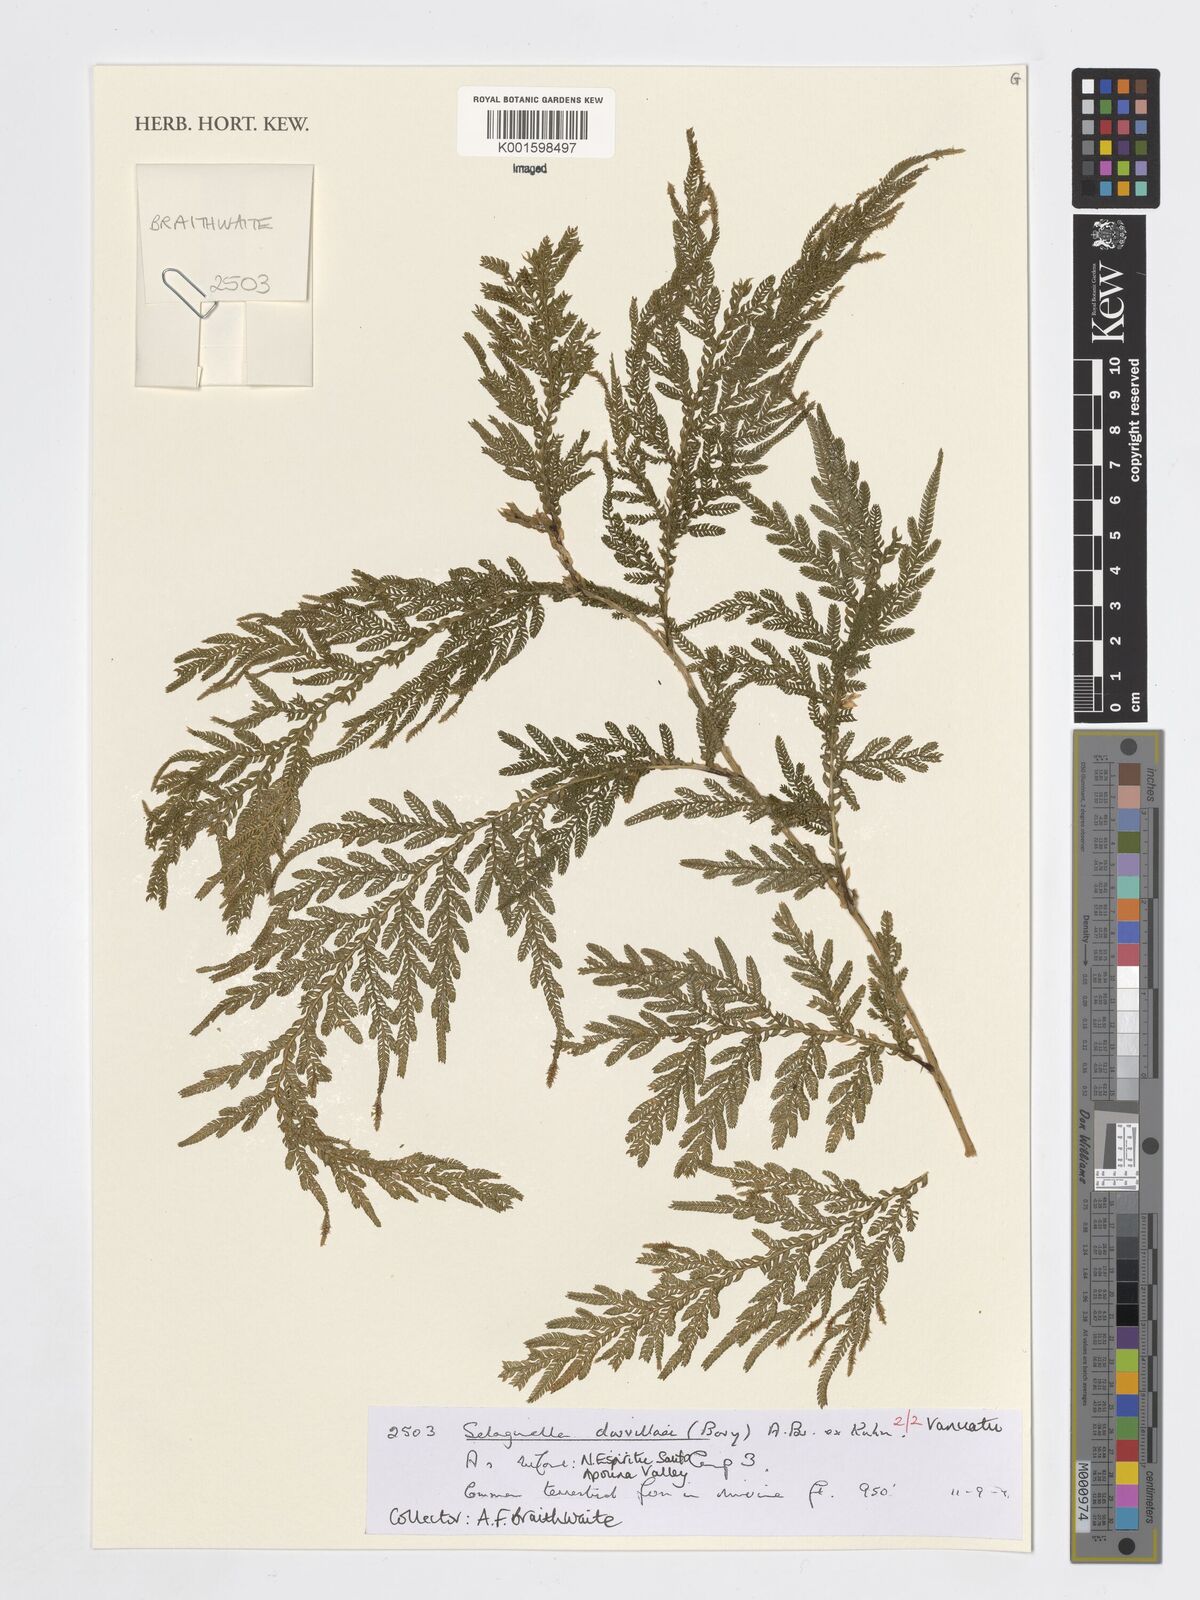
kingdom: Plantae
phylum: Tracheophyta
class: Lycopodiopsida
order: Selaginellales
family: Selaginellaceae
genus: Selaginella
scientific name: Selaginella
